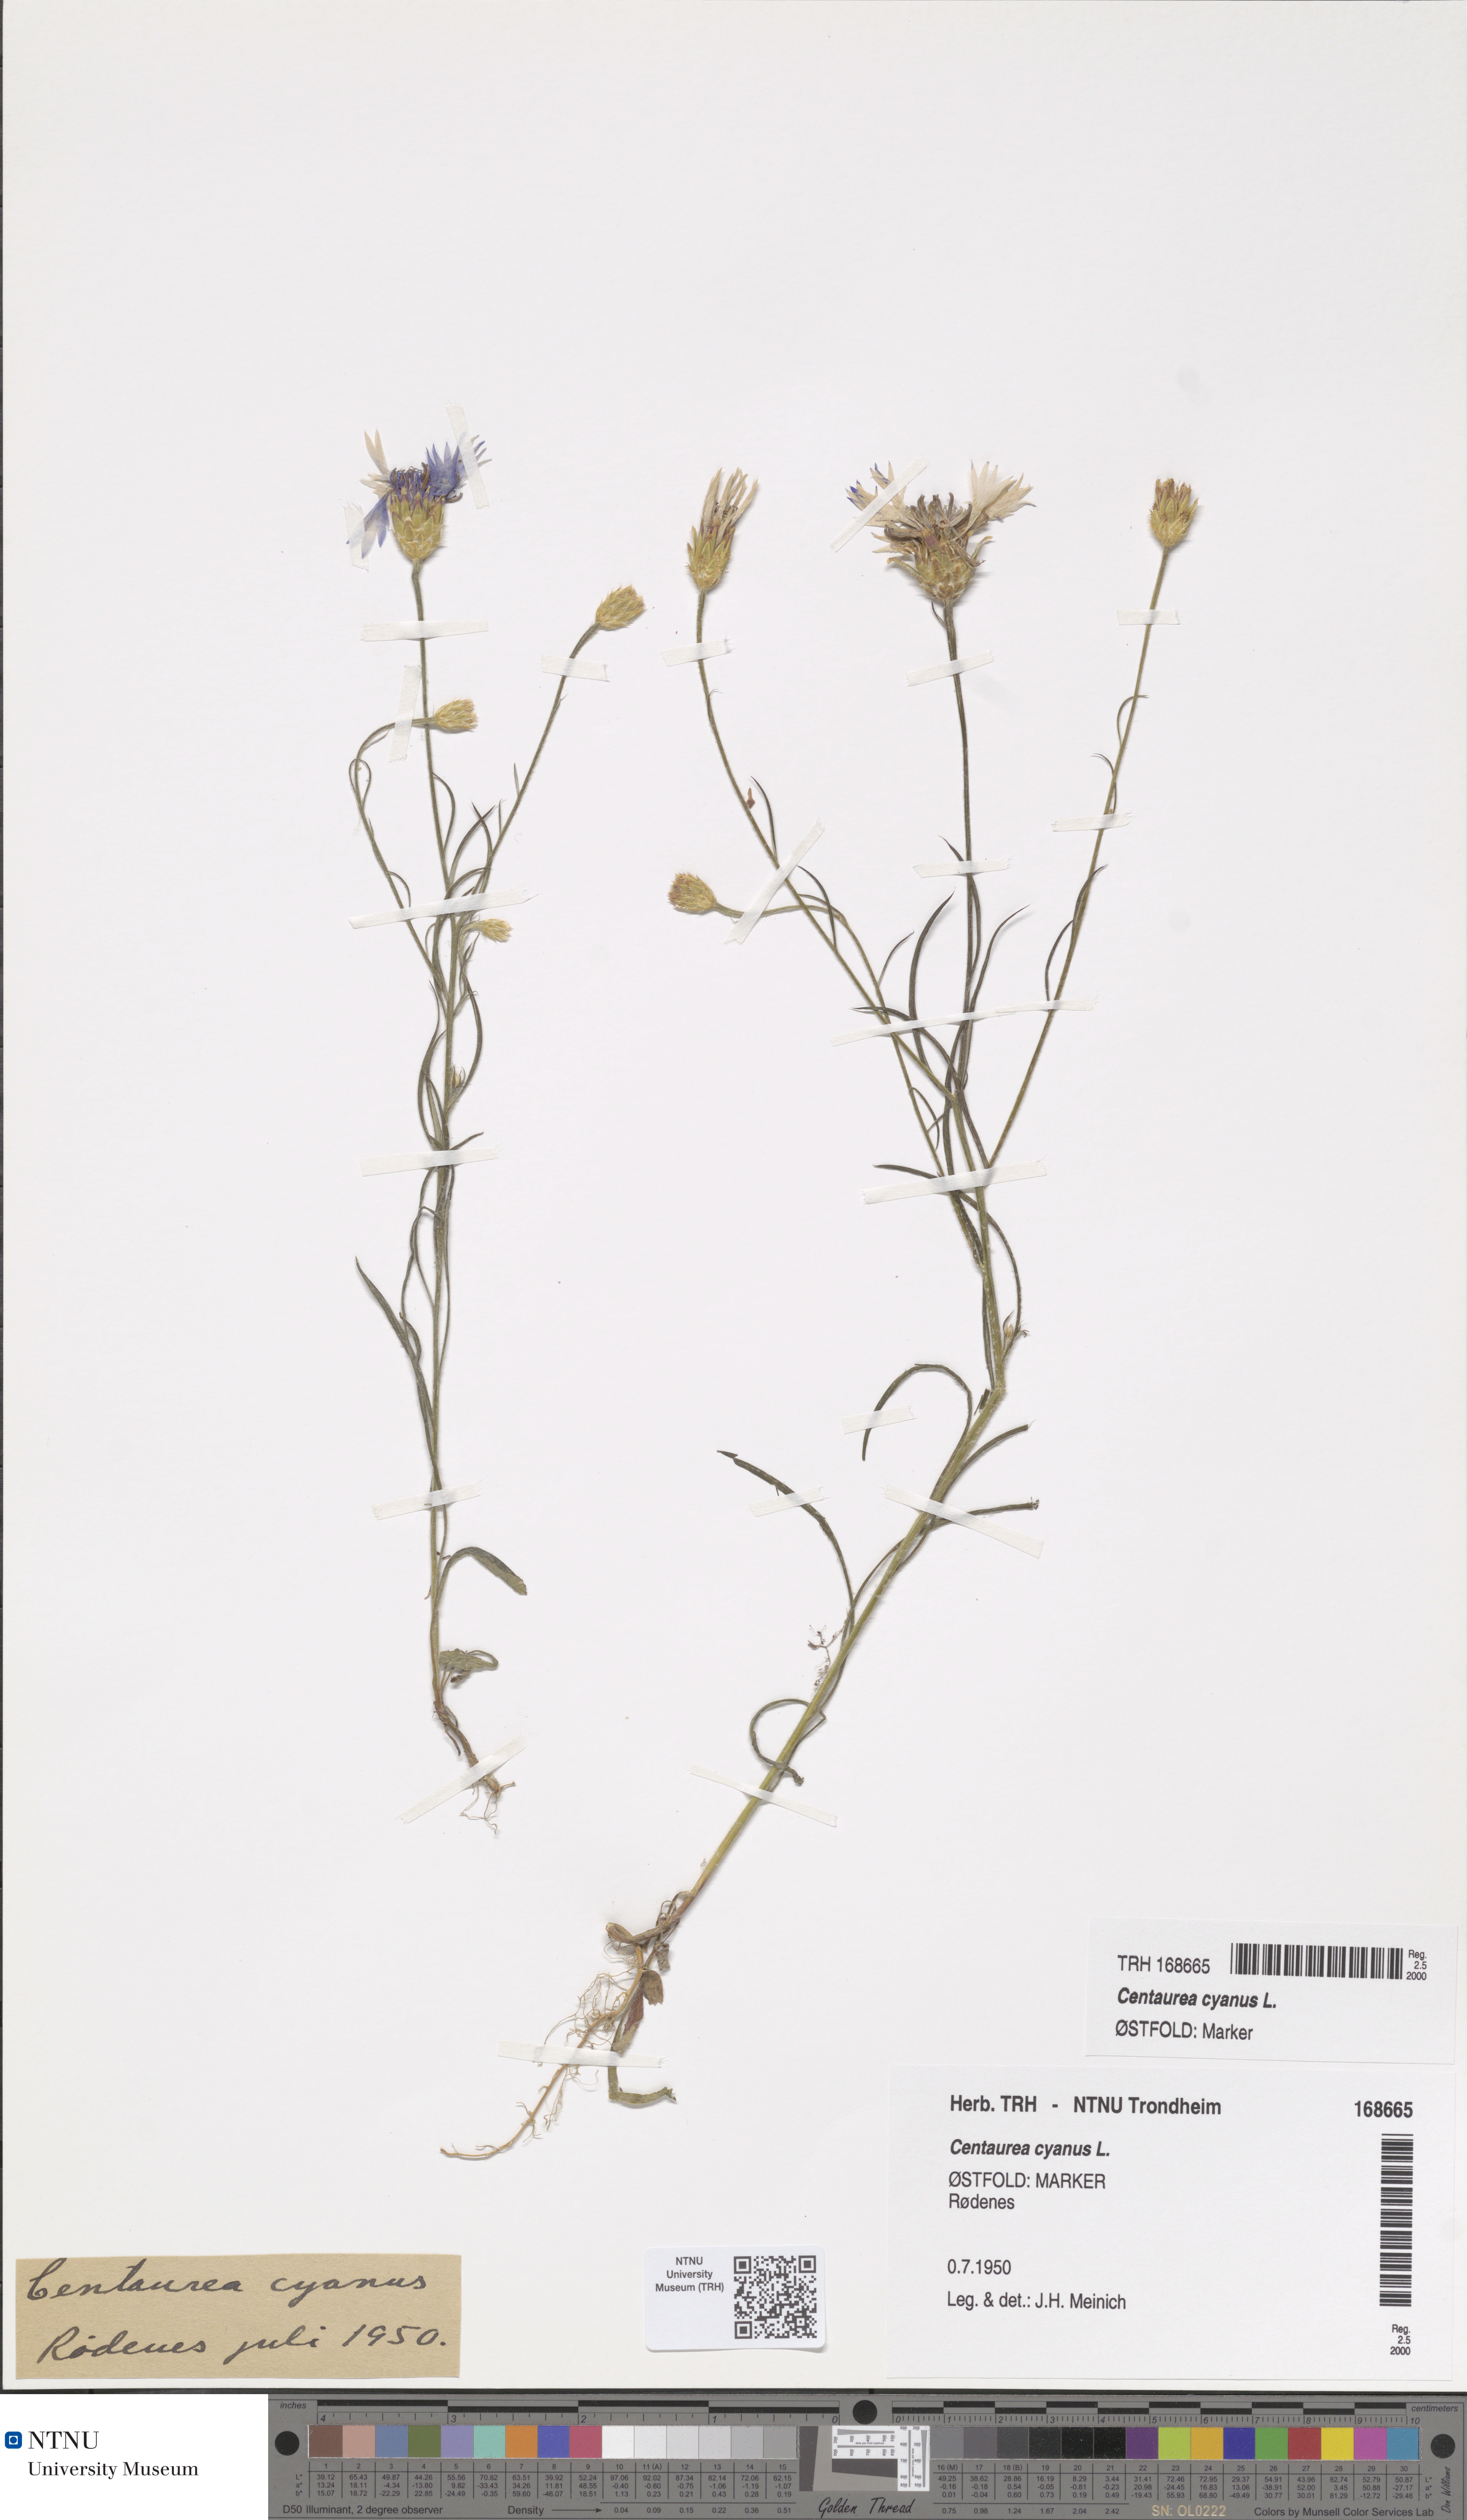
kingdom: Plantae
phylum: Tracheophyta
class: Magnoliopsida
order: Asterales
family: Asteraceae
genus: Centaurea
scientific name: Centaurea cyanus
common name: Cornflower
